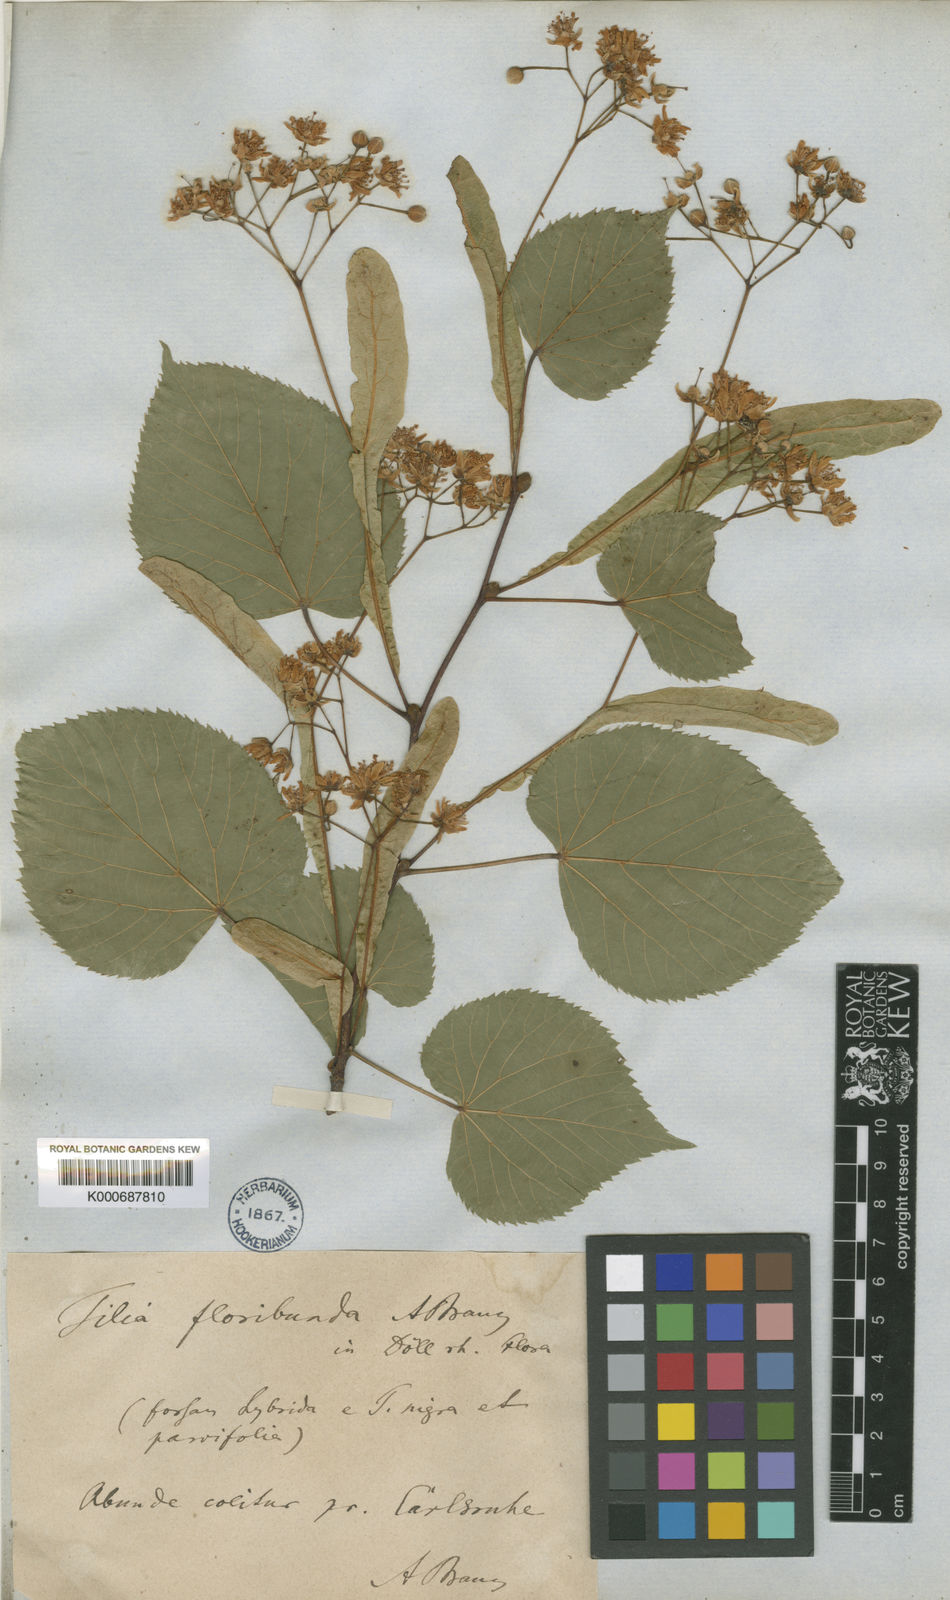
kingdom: Plantae
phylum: Tracheophyta
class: Magnoliopsida
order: Malvales
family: Malvaceae
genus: Tilia
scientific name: Tilia flavescens
